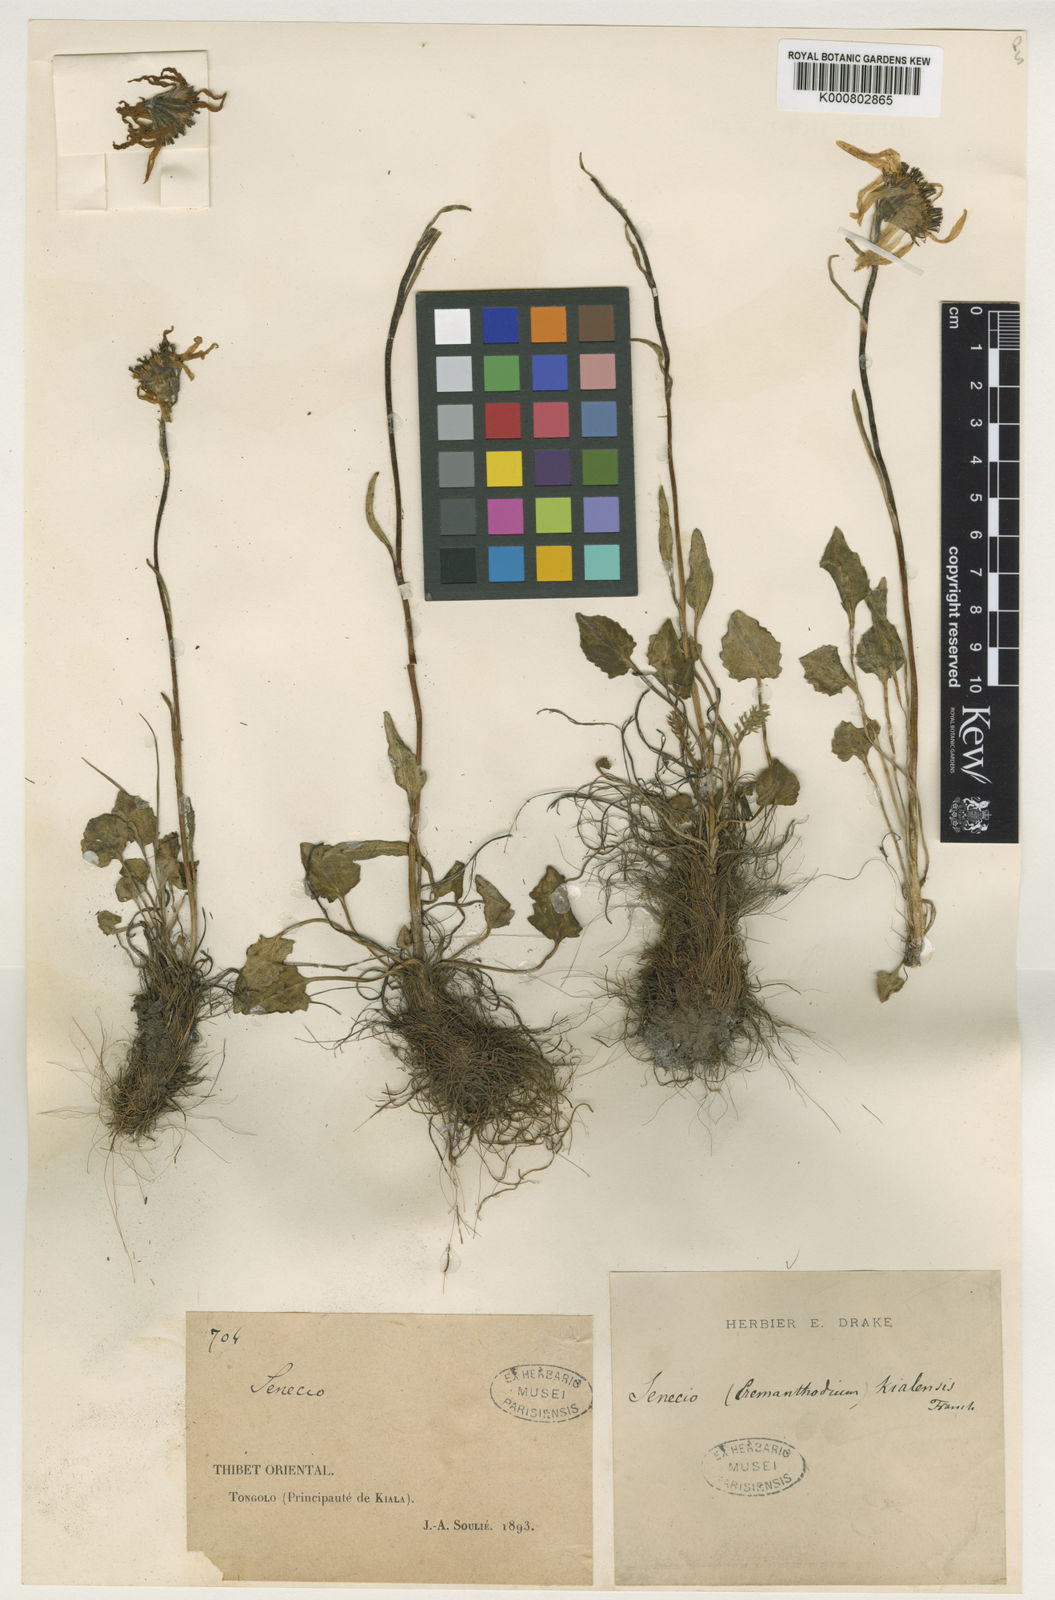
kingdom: Plantae
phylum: Tracheophyta
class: Magnoliopsida
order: Asterales
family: Asteraceae
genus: Cremanthodium
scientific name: Cremanthodium potaninii
